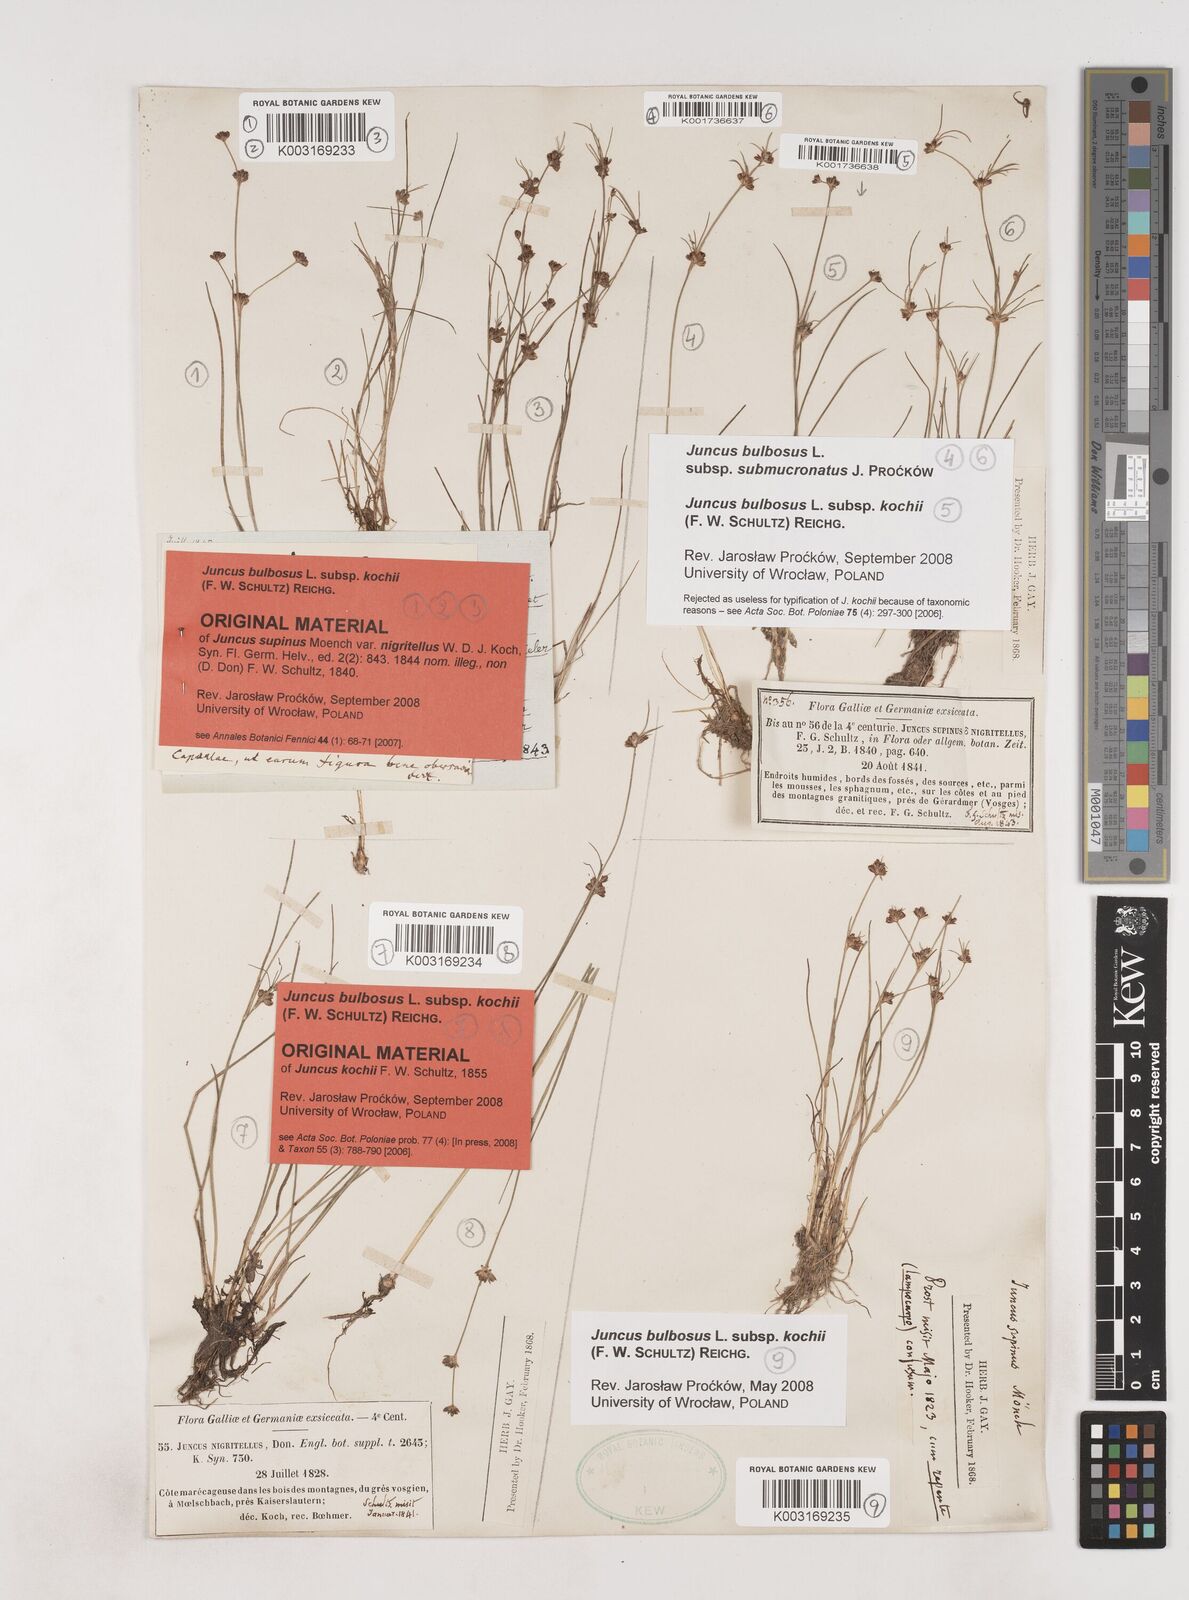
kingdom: Plantae
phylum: Tracheophyta
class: Liliopsida
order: Poales
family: Juncaceae
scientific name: Juncaceae
